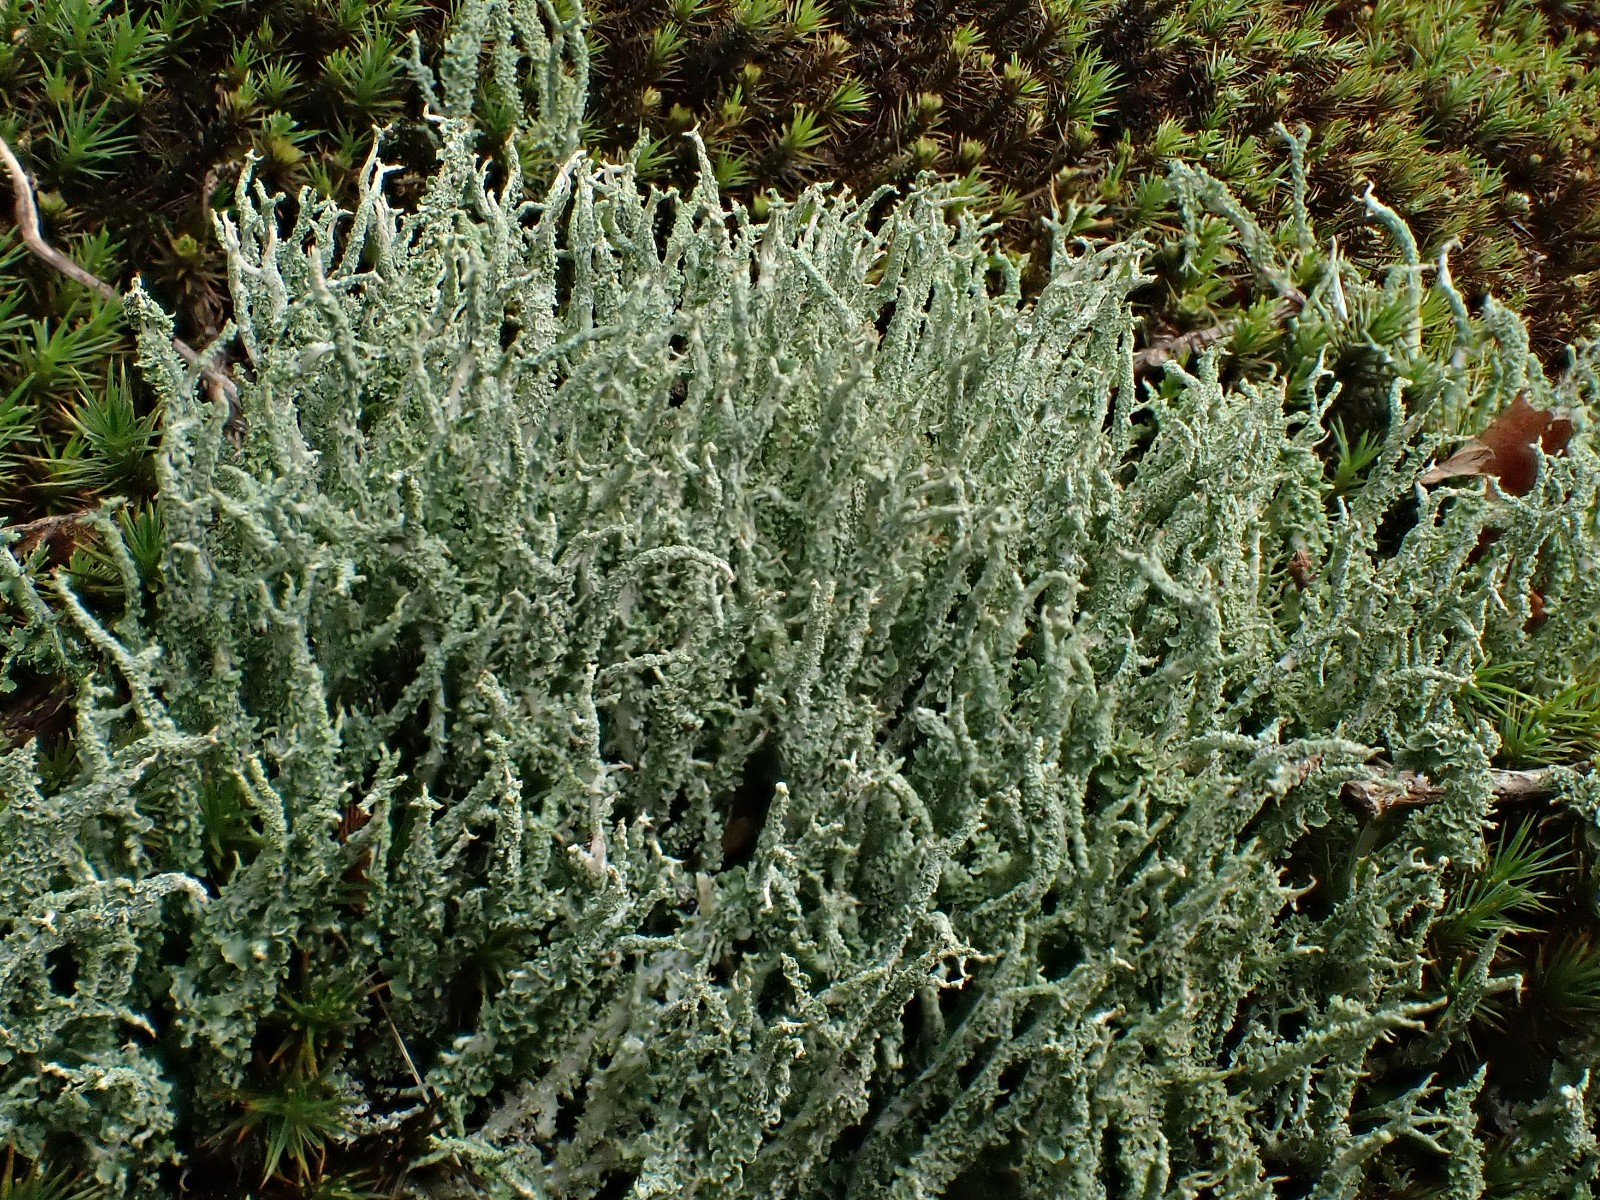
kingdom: Fungi
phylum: Ascomycota
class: Lecanoromycetes
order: Lecanorales
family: Cladoniaceae
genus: Cladonia
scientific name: Cladonia scabriuscula
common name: ru bægerlav
